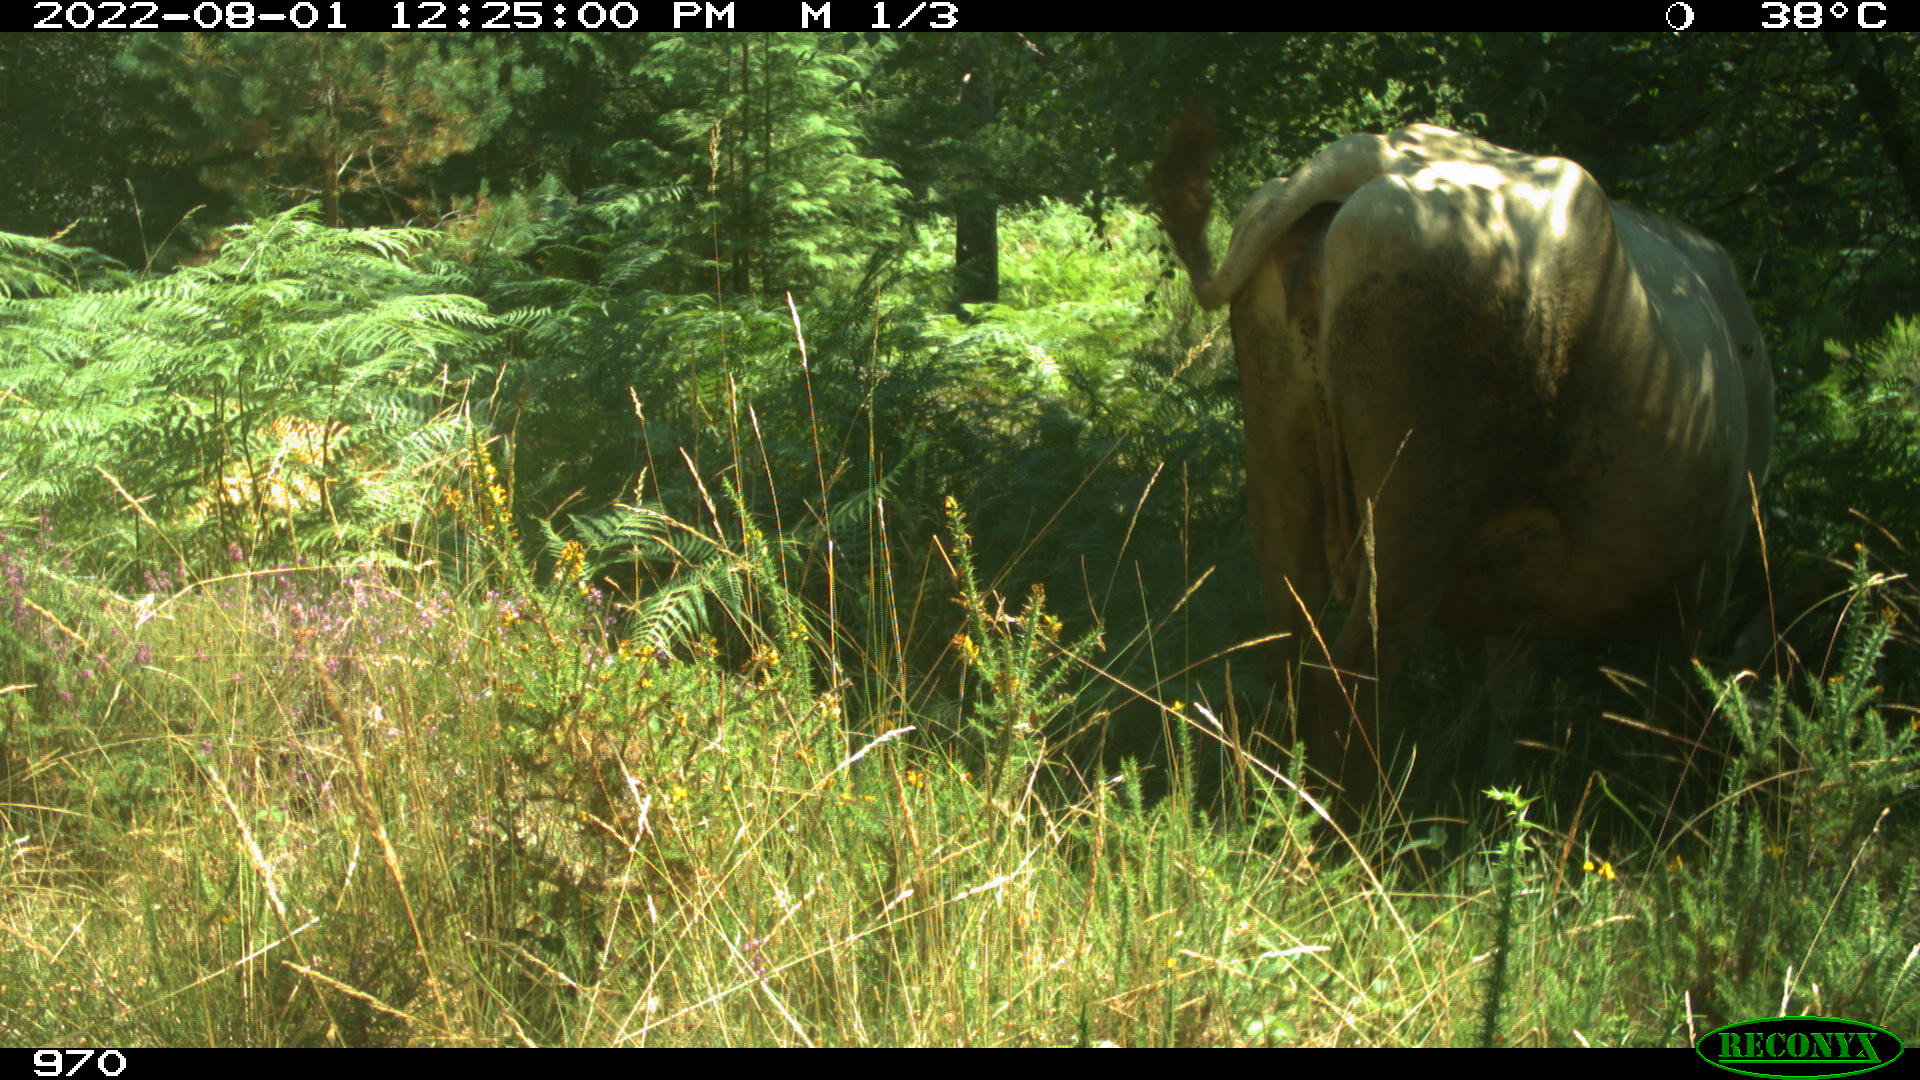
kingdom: Animalia
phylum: Chordata
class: Mammalia
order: Artiodactyla
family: Bovidae
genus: Bos
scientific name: Bos taurus
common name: Domesticated cattle
